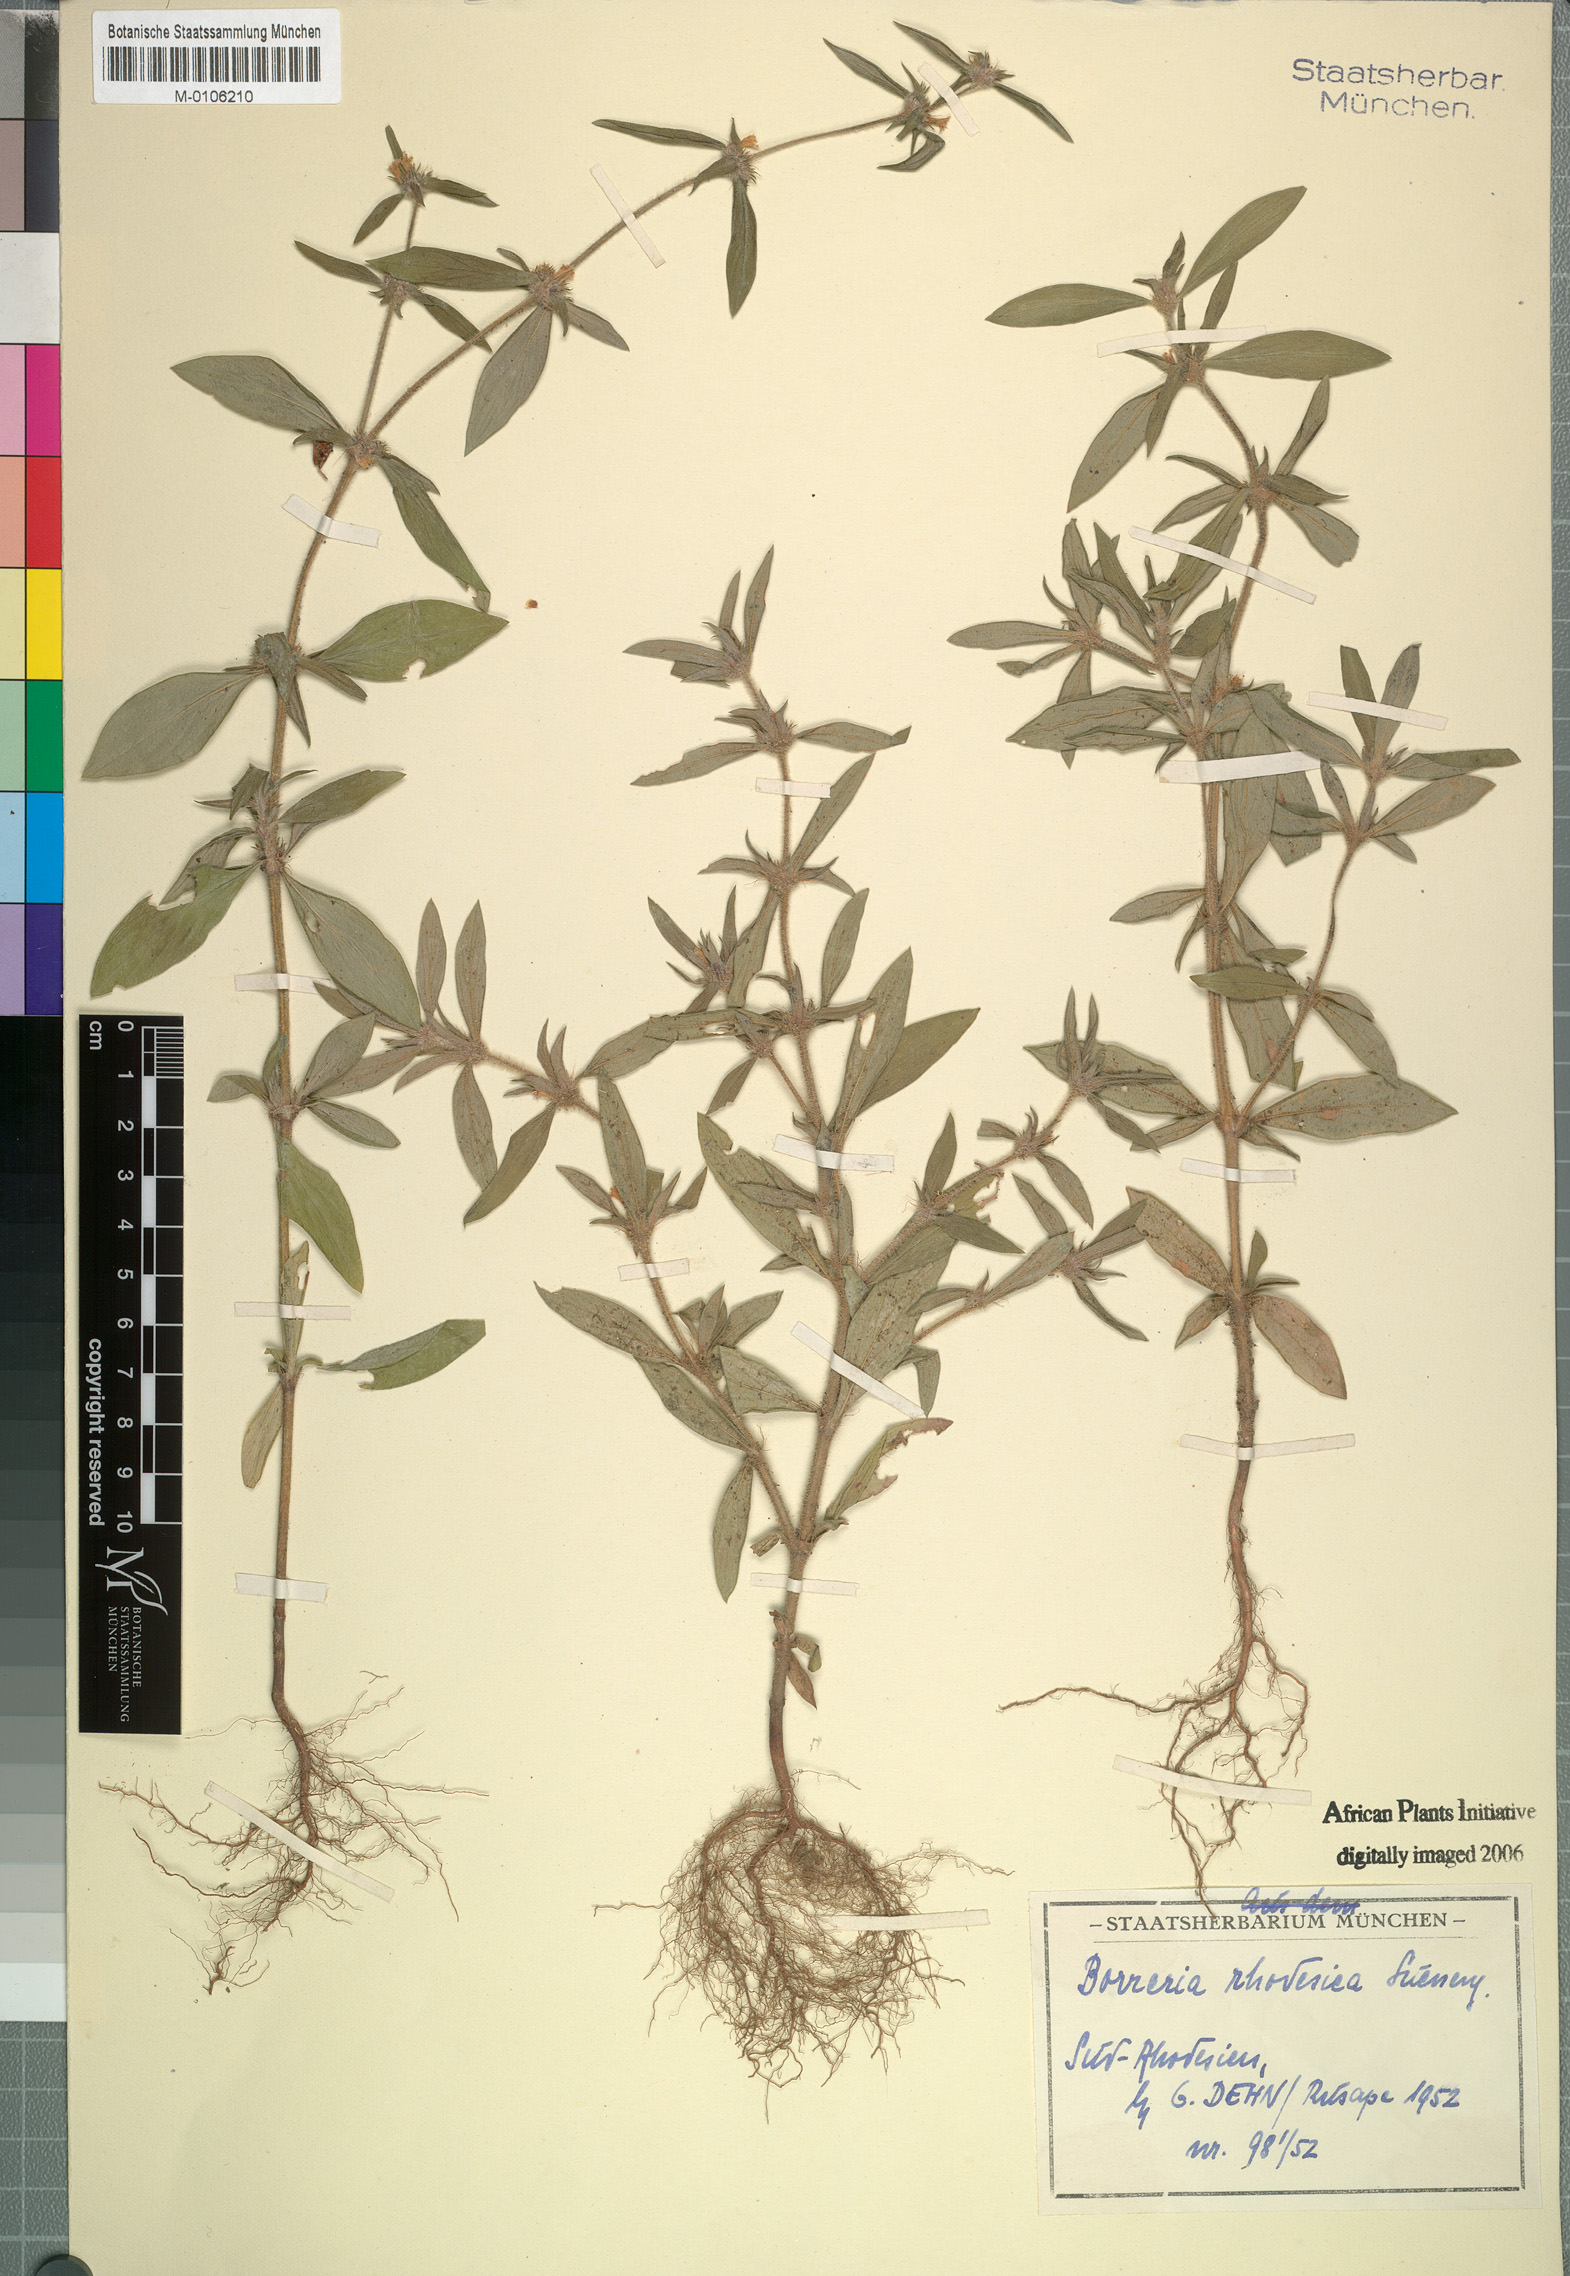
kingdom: Plantae
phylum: Tracheophyta
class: Magnoliopsida
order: Gentianales
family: Rubiaceae
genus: Spermacoce
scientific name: Spermacoce senensis
